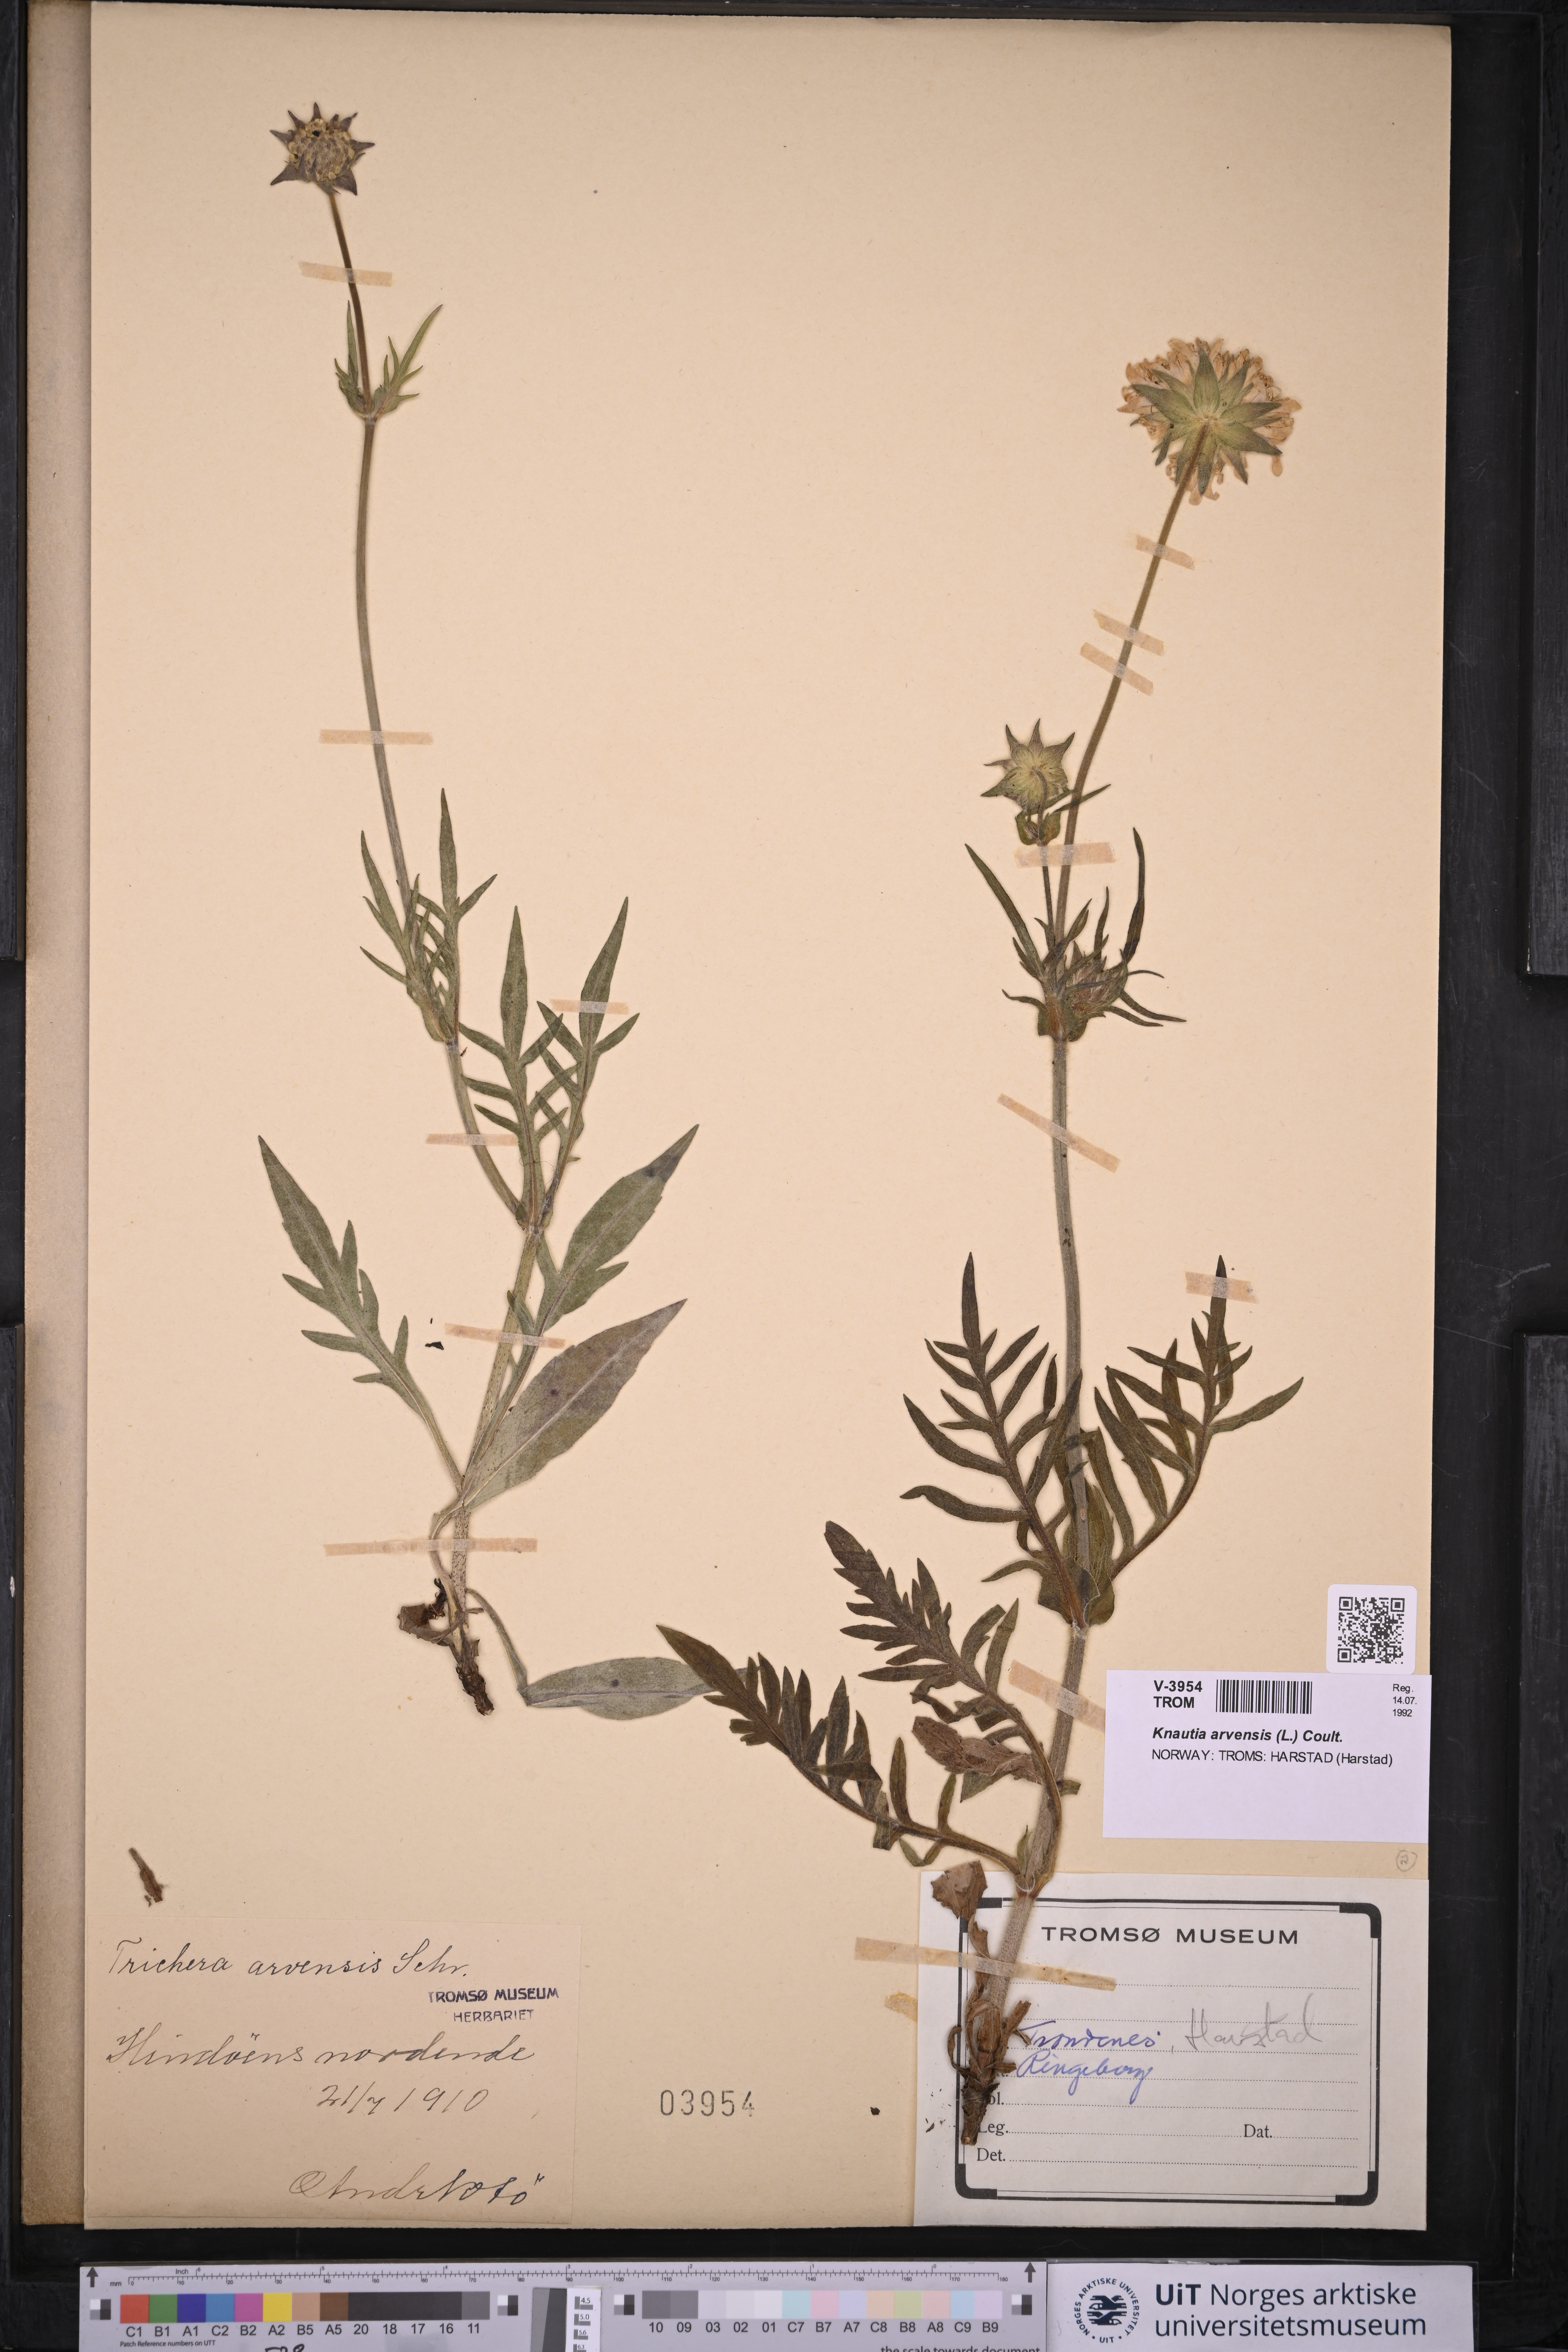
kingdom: Plantae
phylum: Tracheophyta
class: Magnoliopsida
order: Dipsacales
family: Caprifoliaceae
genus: Knautia
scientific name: Knautia arvensis
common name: Field scabiosa
